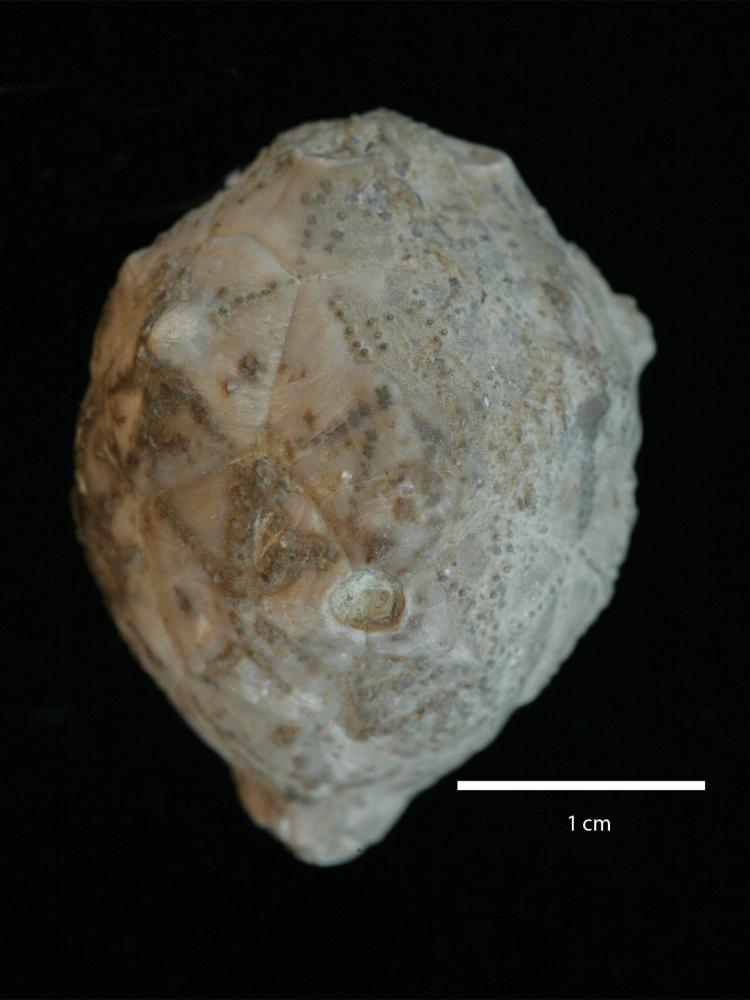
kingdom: Animalia
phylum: Echinodermata
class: Crinoidea
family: Hemicosmitidae
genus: Hemicosmites
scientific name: Hemicosmites extraneus
